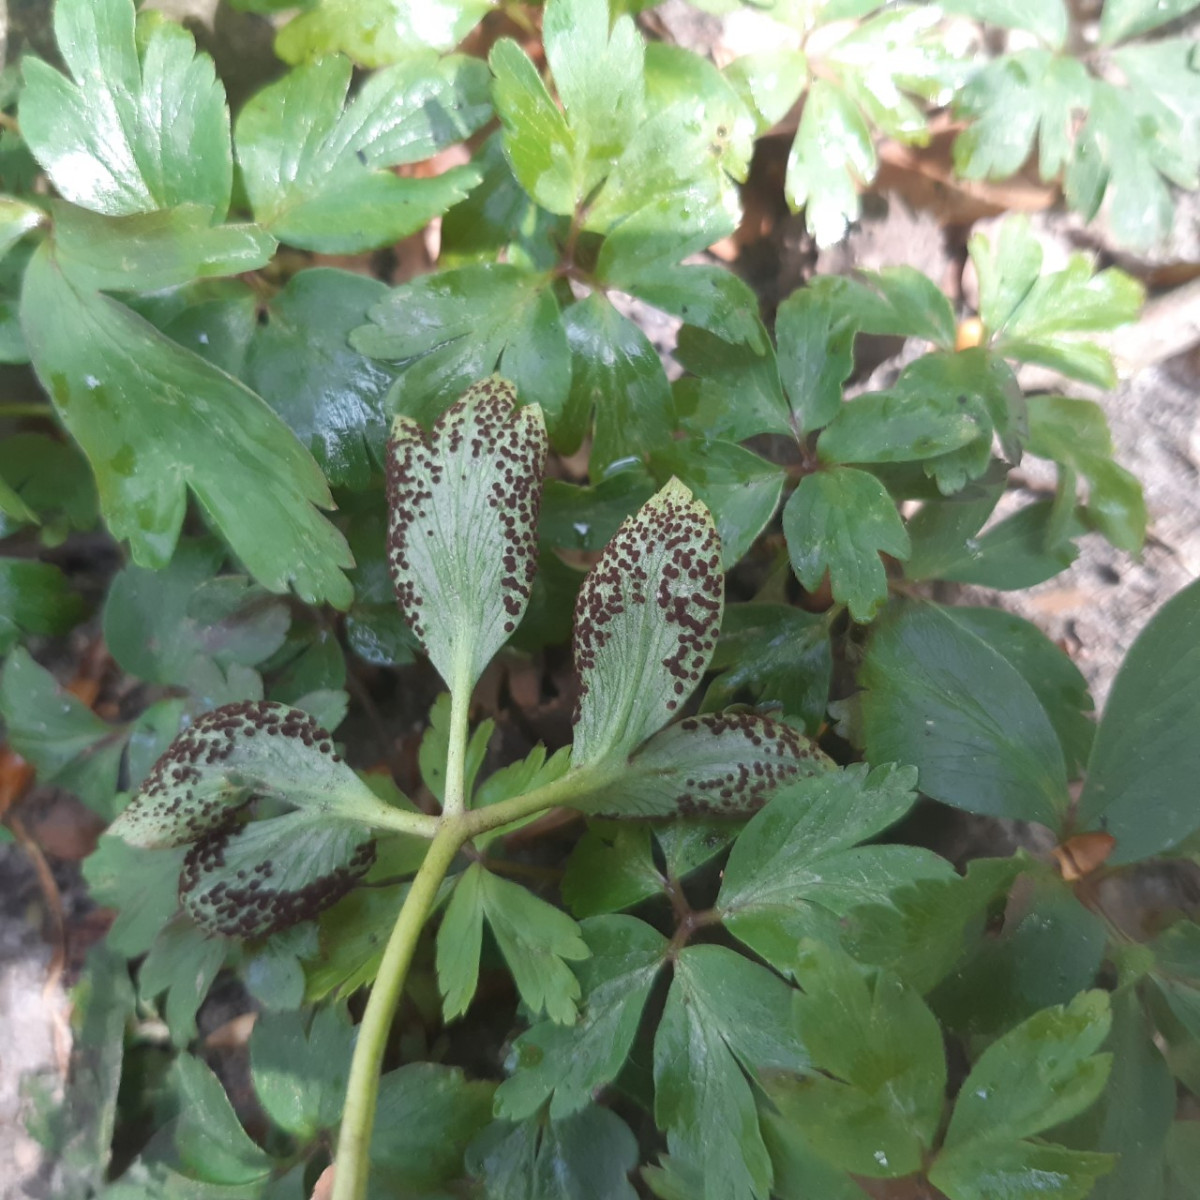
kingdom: Fungi
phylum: Basidiomycota
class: Pucciniomycetes
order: Pucciniales
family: Tranzscheliaceae
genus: Tranzschelia
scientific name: Tranzschelia anemones
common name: anemone-knæksporerust
